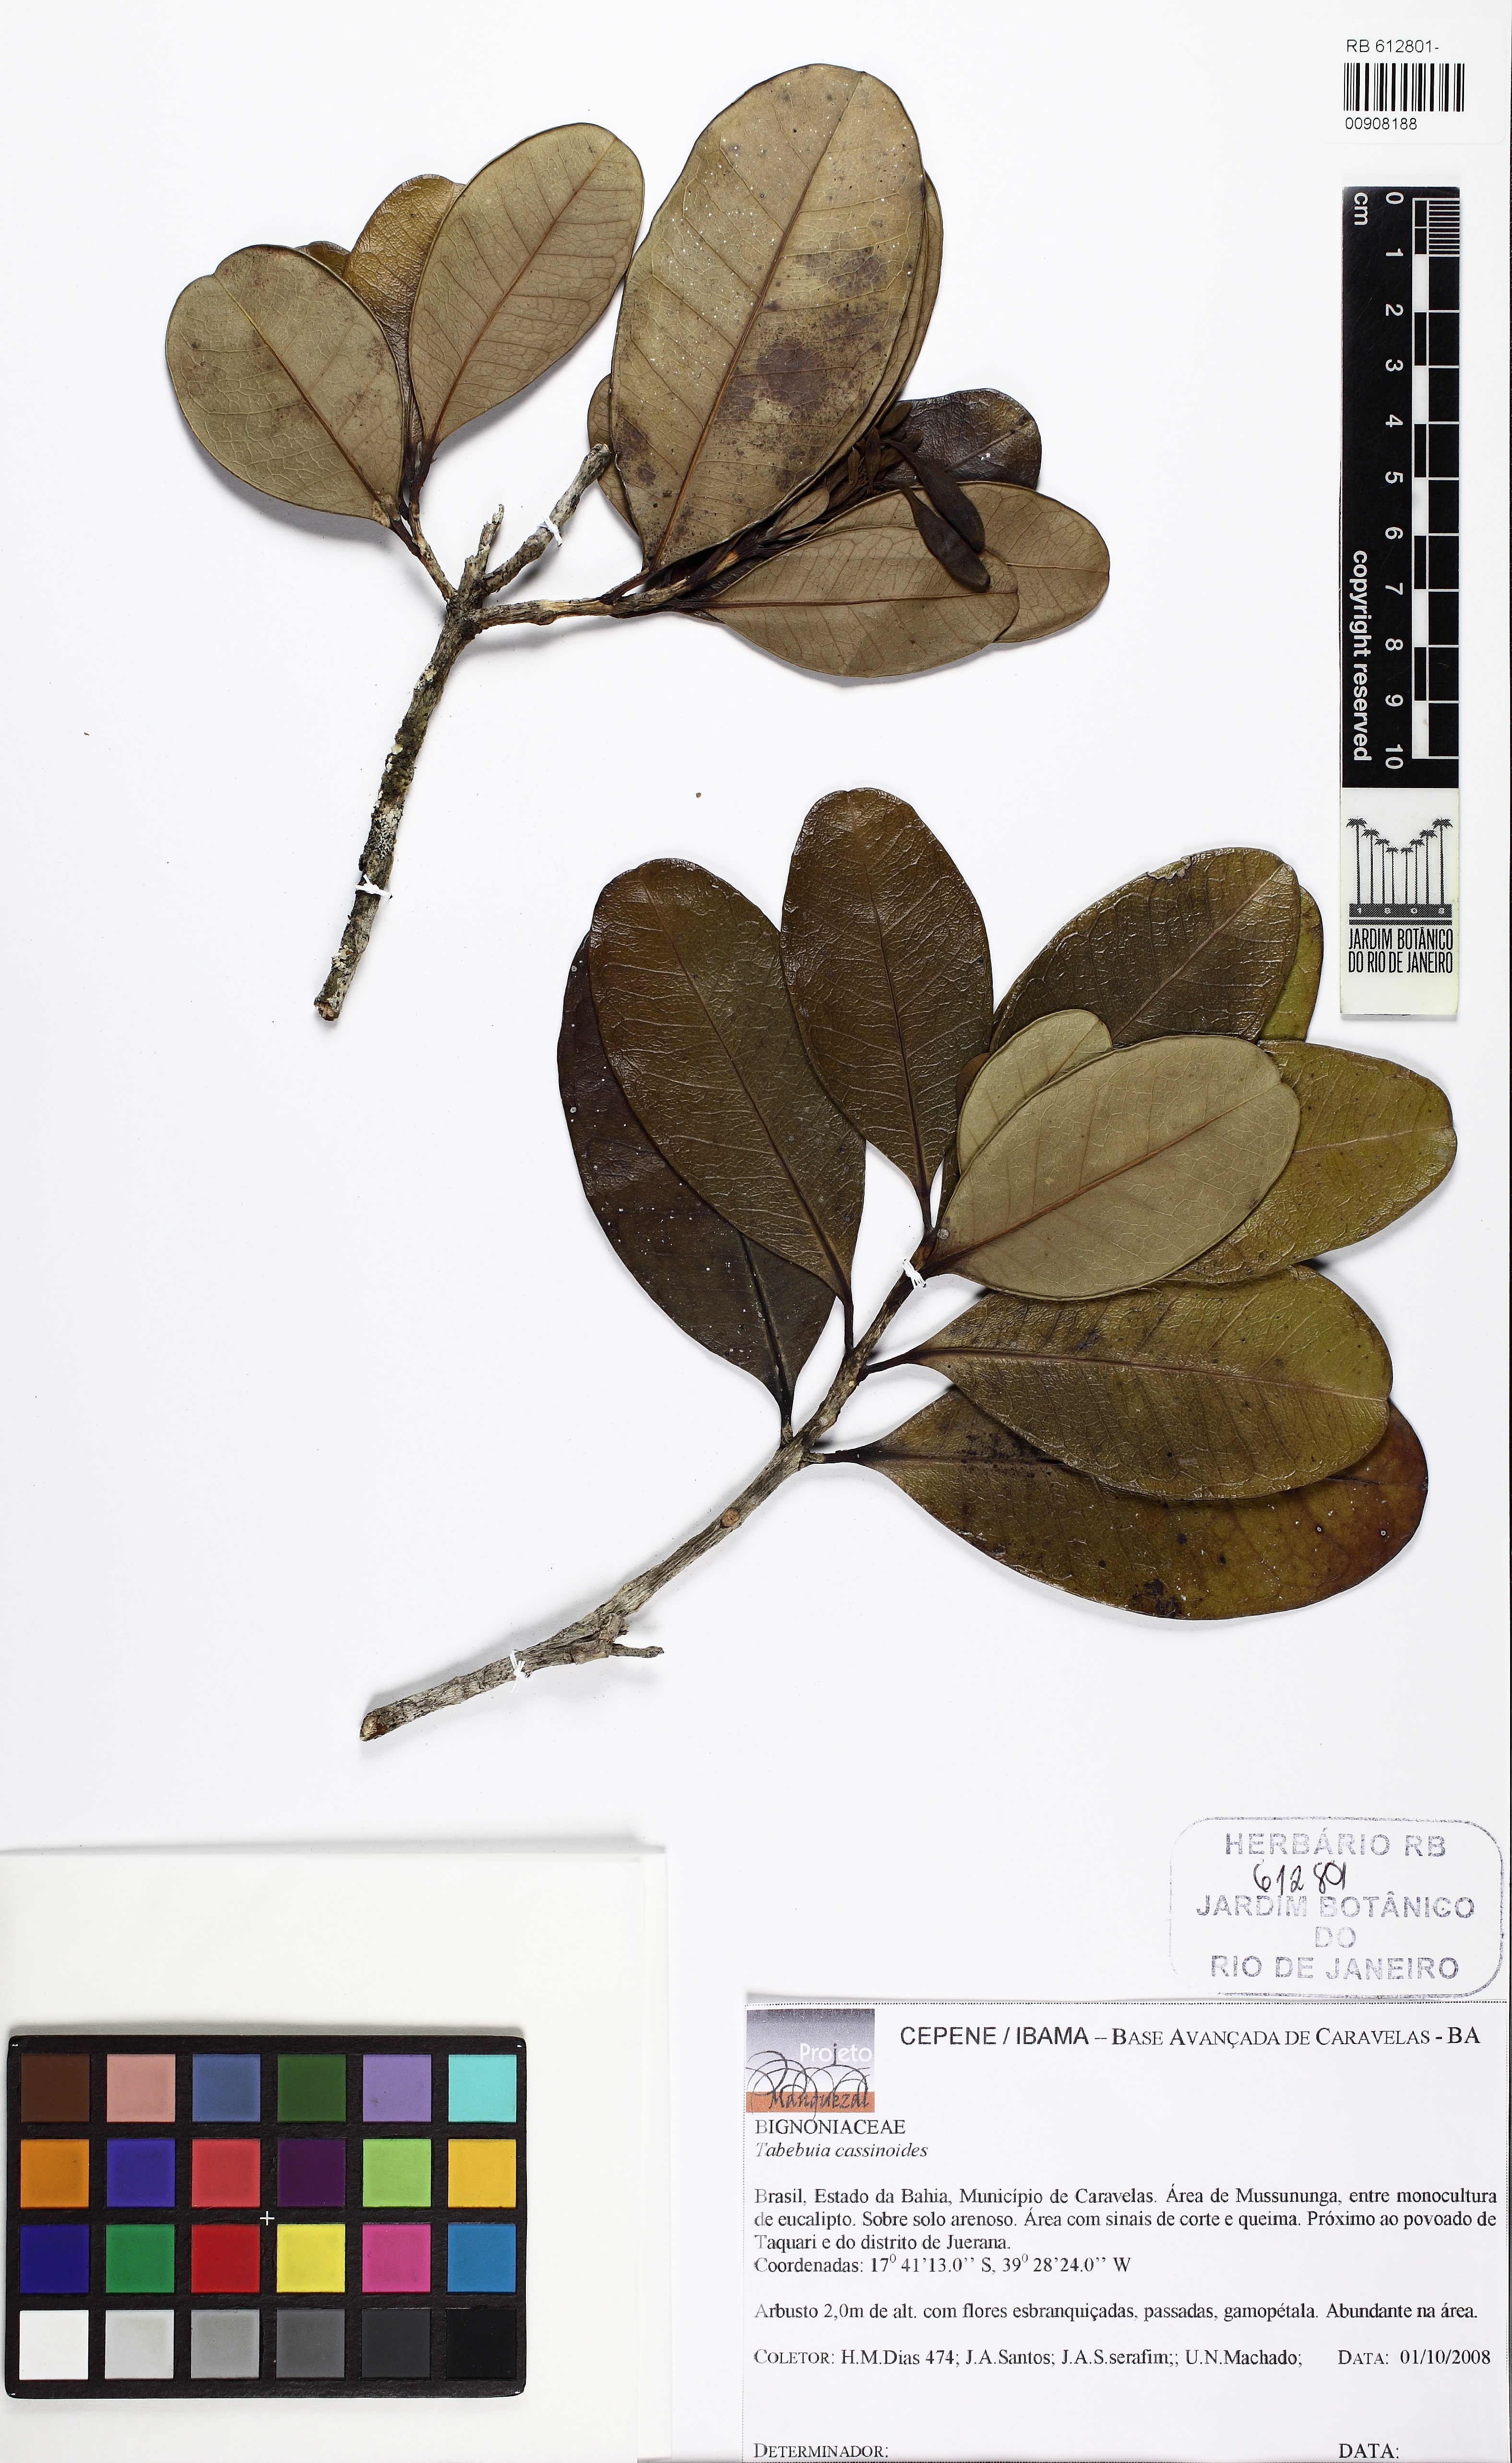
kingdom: Plantae
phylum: Tracheophyta
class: Magnoliopsida
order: Lamiales
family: Bignoniaceae
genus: Tabebuia
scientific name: Tabebuia cassinoides
